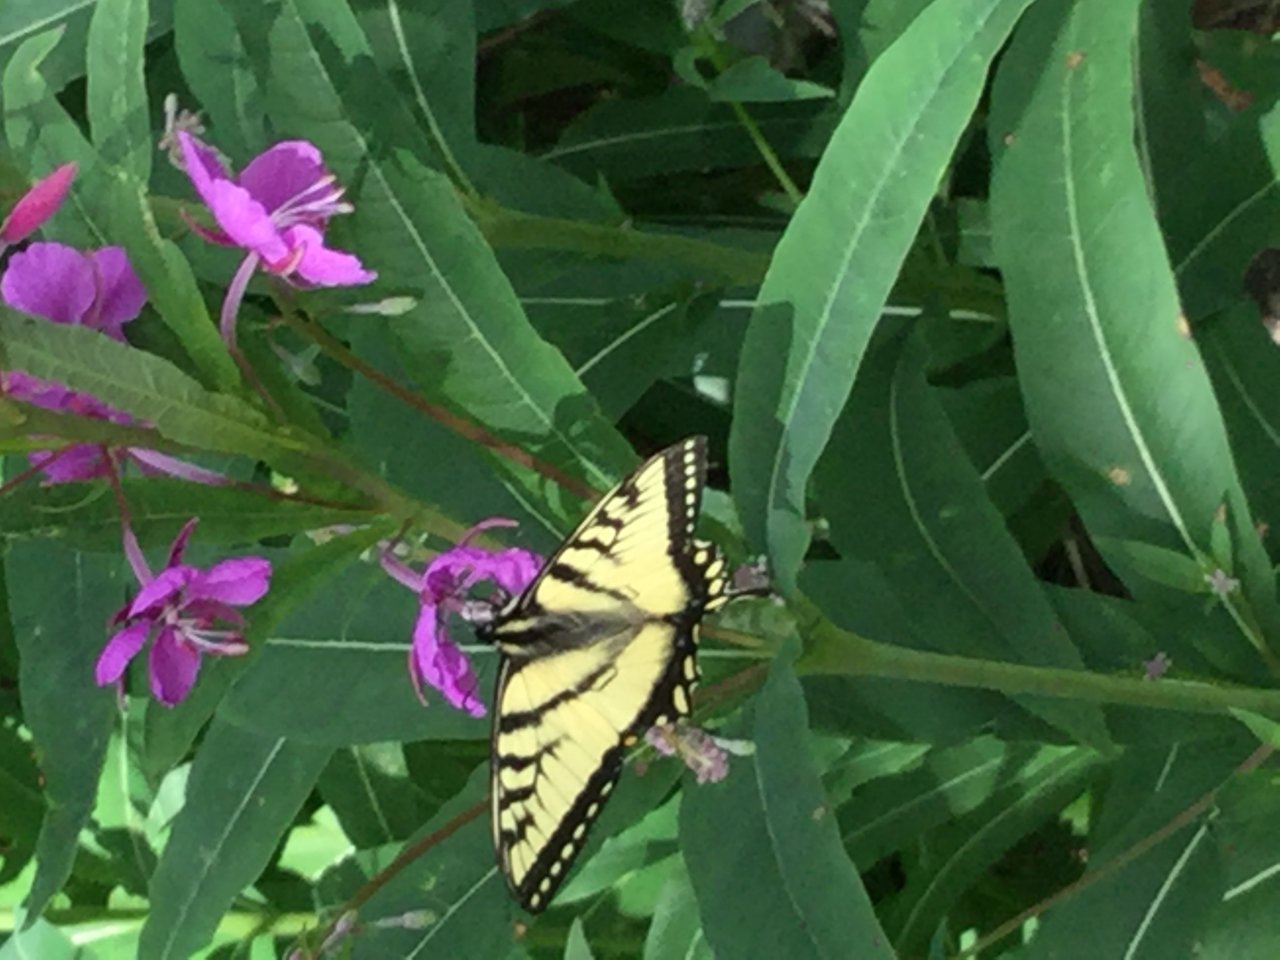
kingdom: Animalia
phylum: Arthropoda
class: Insecta
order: Lepidoptera
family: Papilionidae
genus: Pterourus
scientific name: Pterourus canadensis
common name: Canadian Tiger Swallowtail
